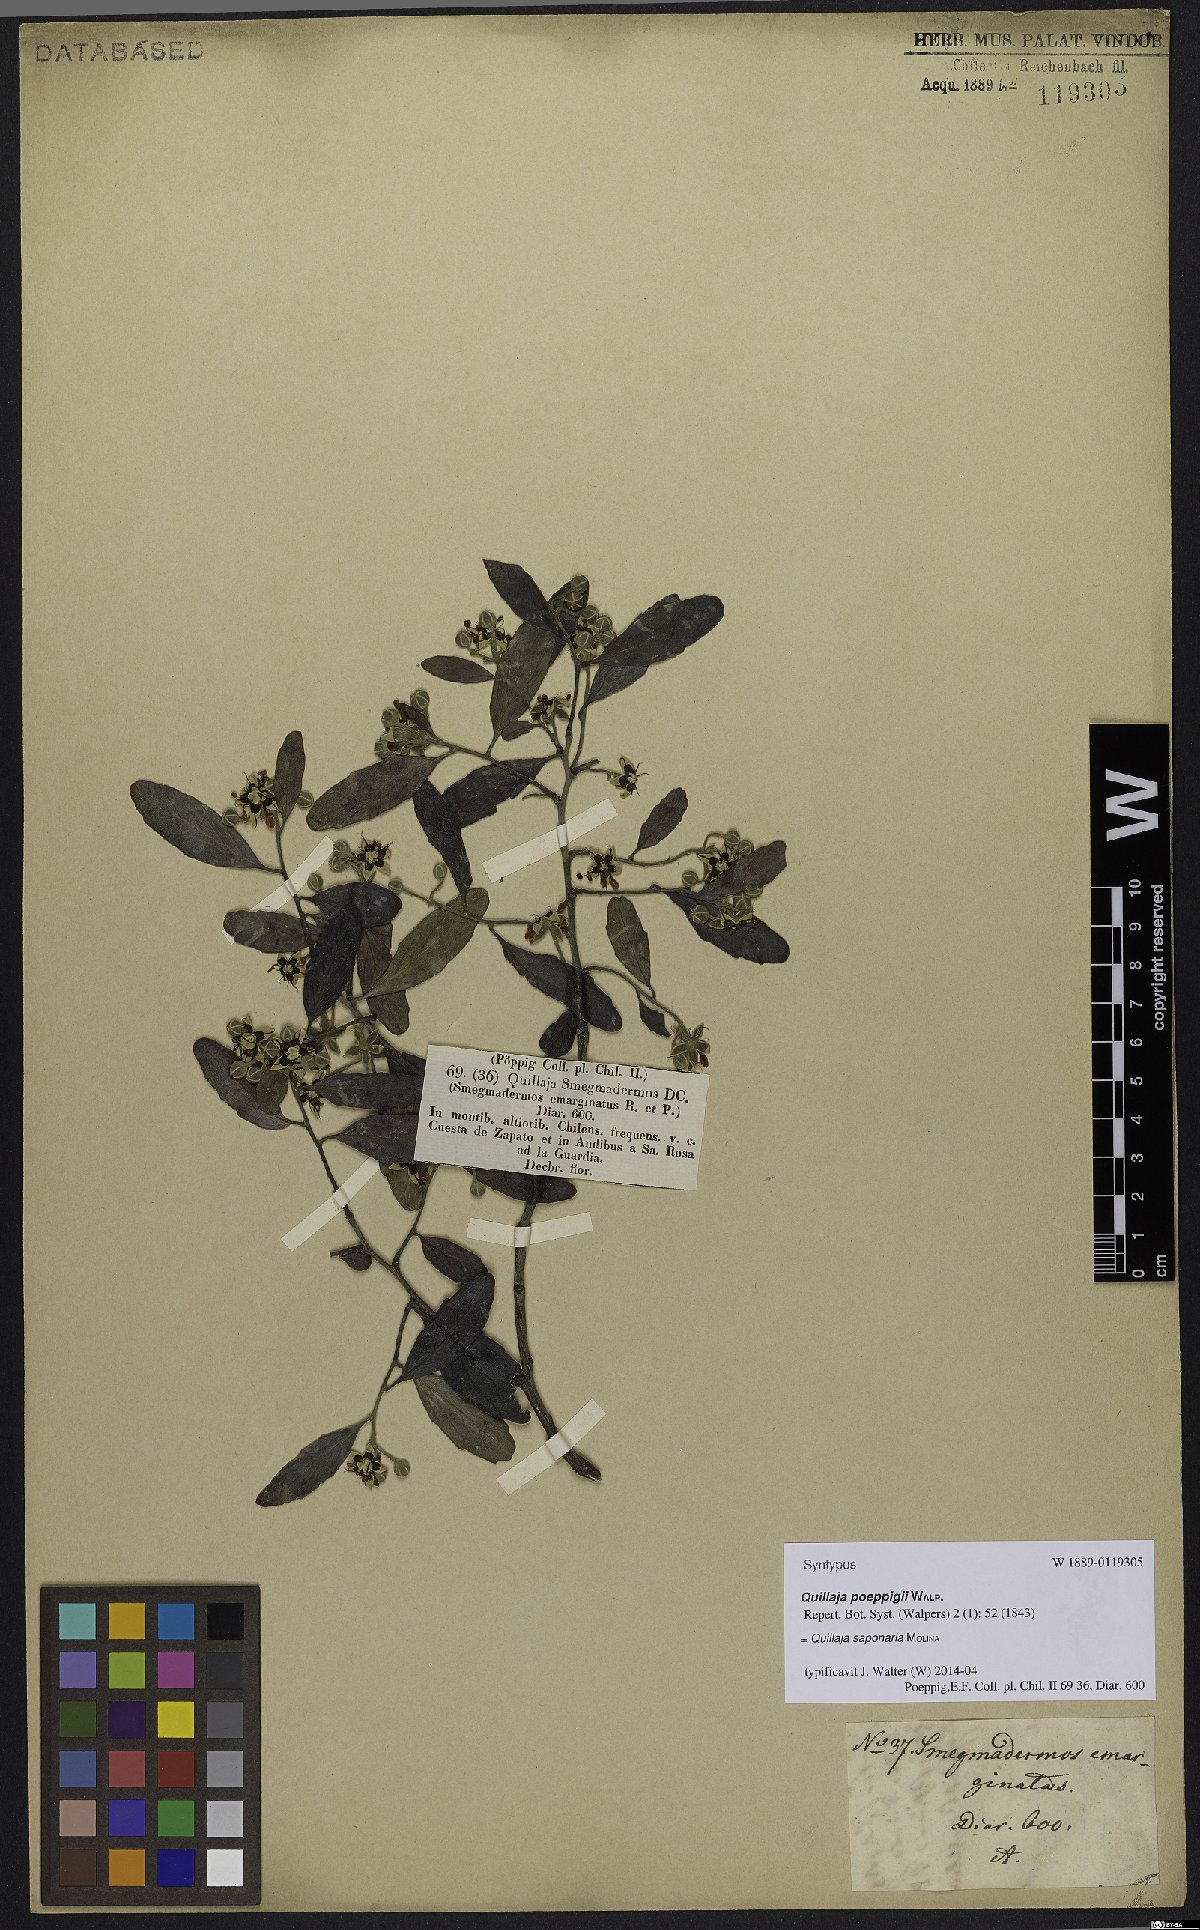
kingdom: Plantae
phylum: Tracheophyta
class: Magnoliopsida
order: Fabales
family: Quillajaceae
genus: Quillaja
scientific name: Quillaja saponaria
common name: Murillo's-bark
